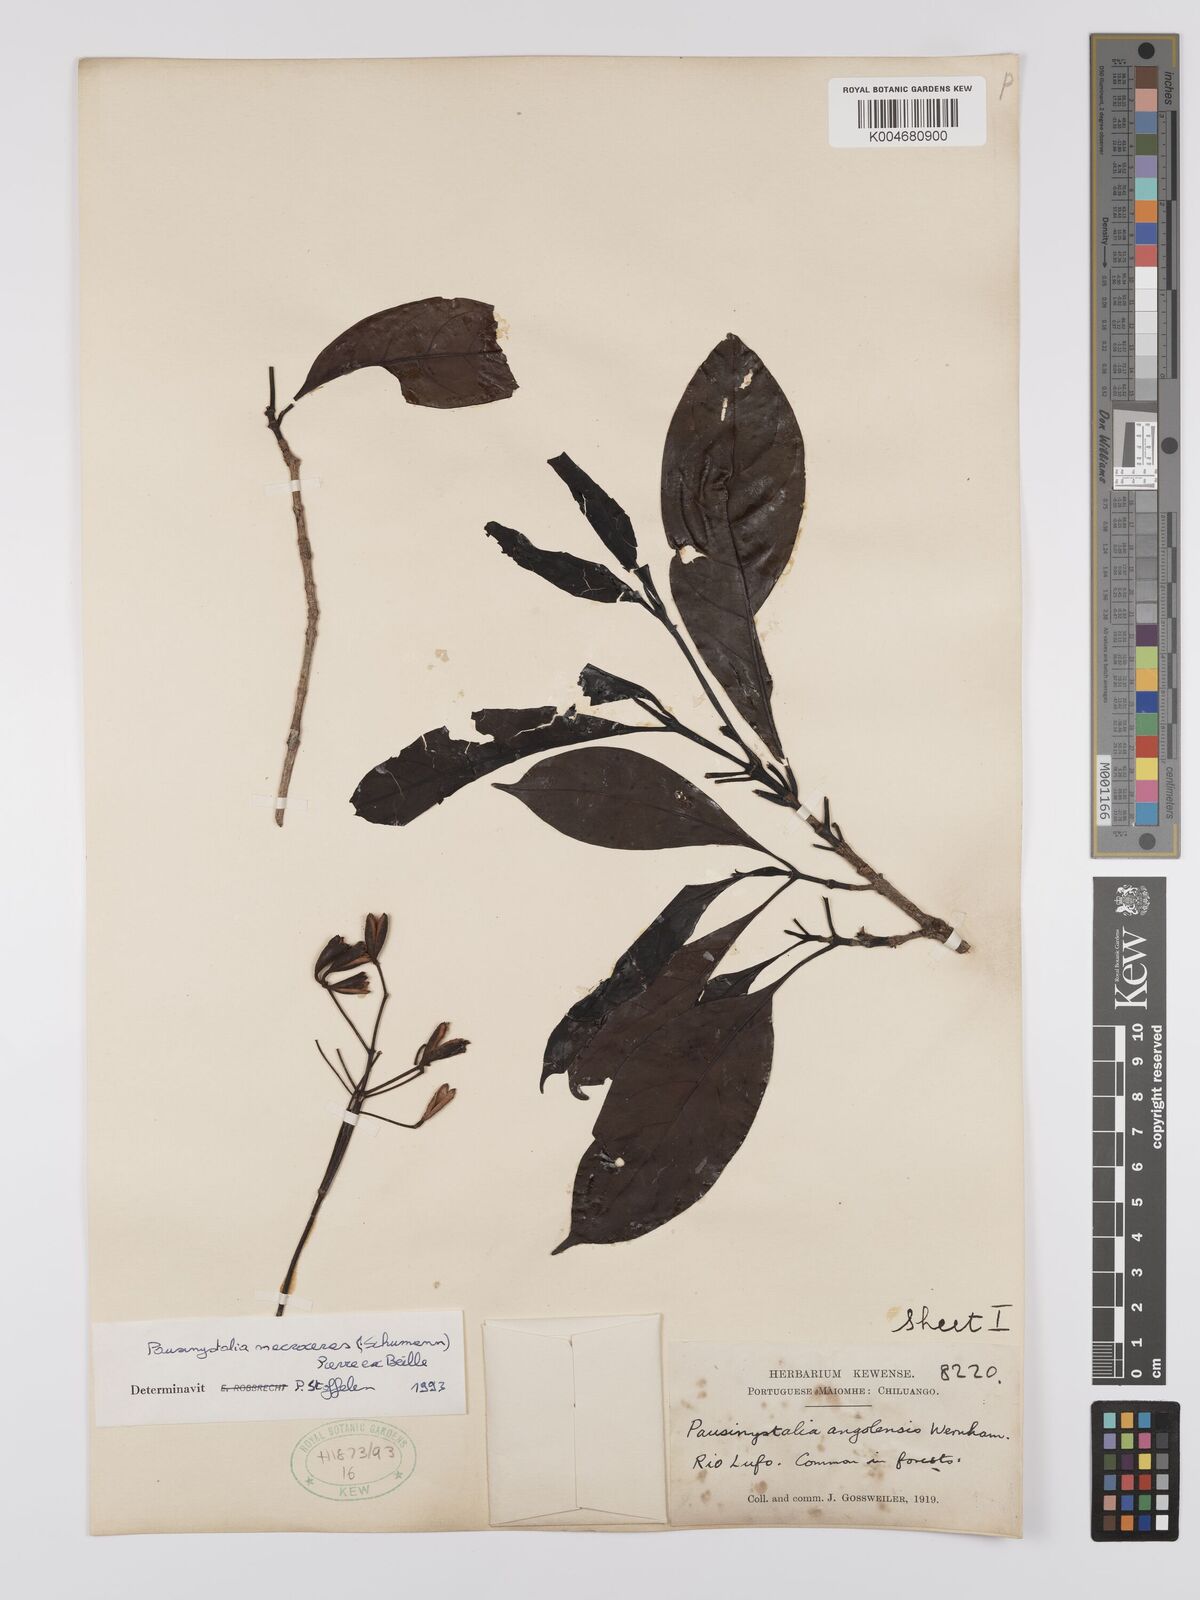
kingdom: Plantae
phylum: Tracheophyta
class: Magnoliopsida
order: Gentianales
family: Rubiaceae
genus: Corynanthe
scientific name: Corynanthe macroceras
